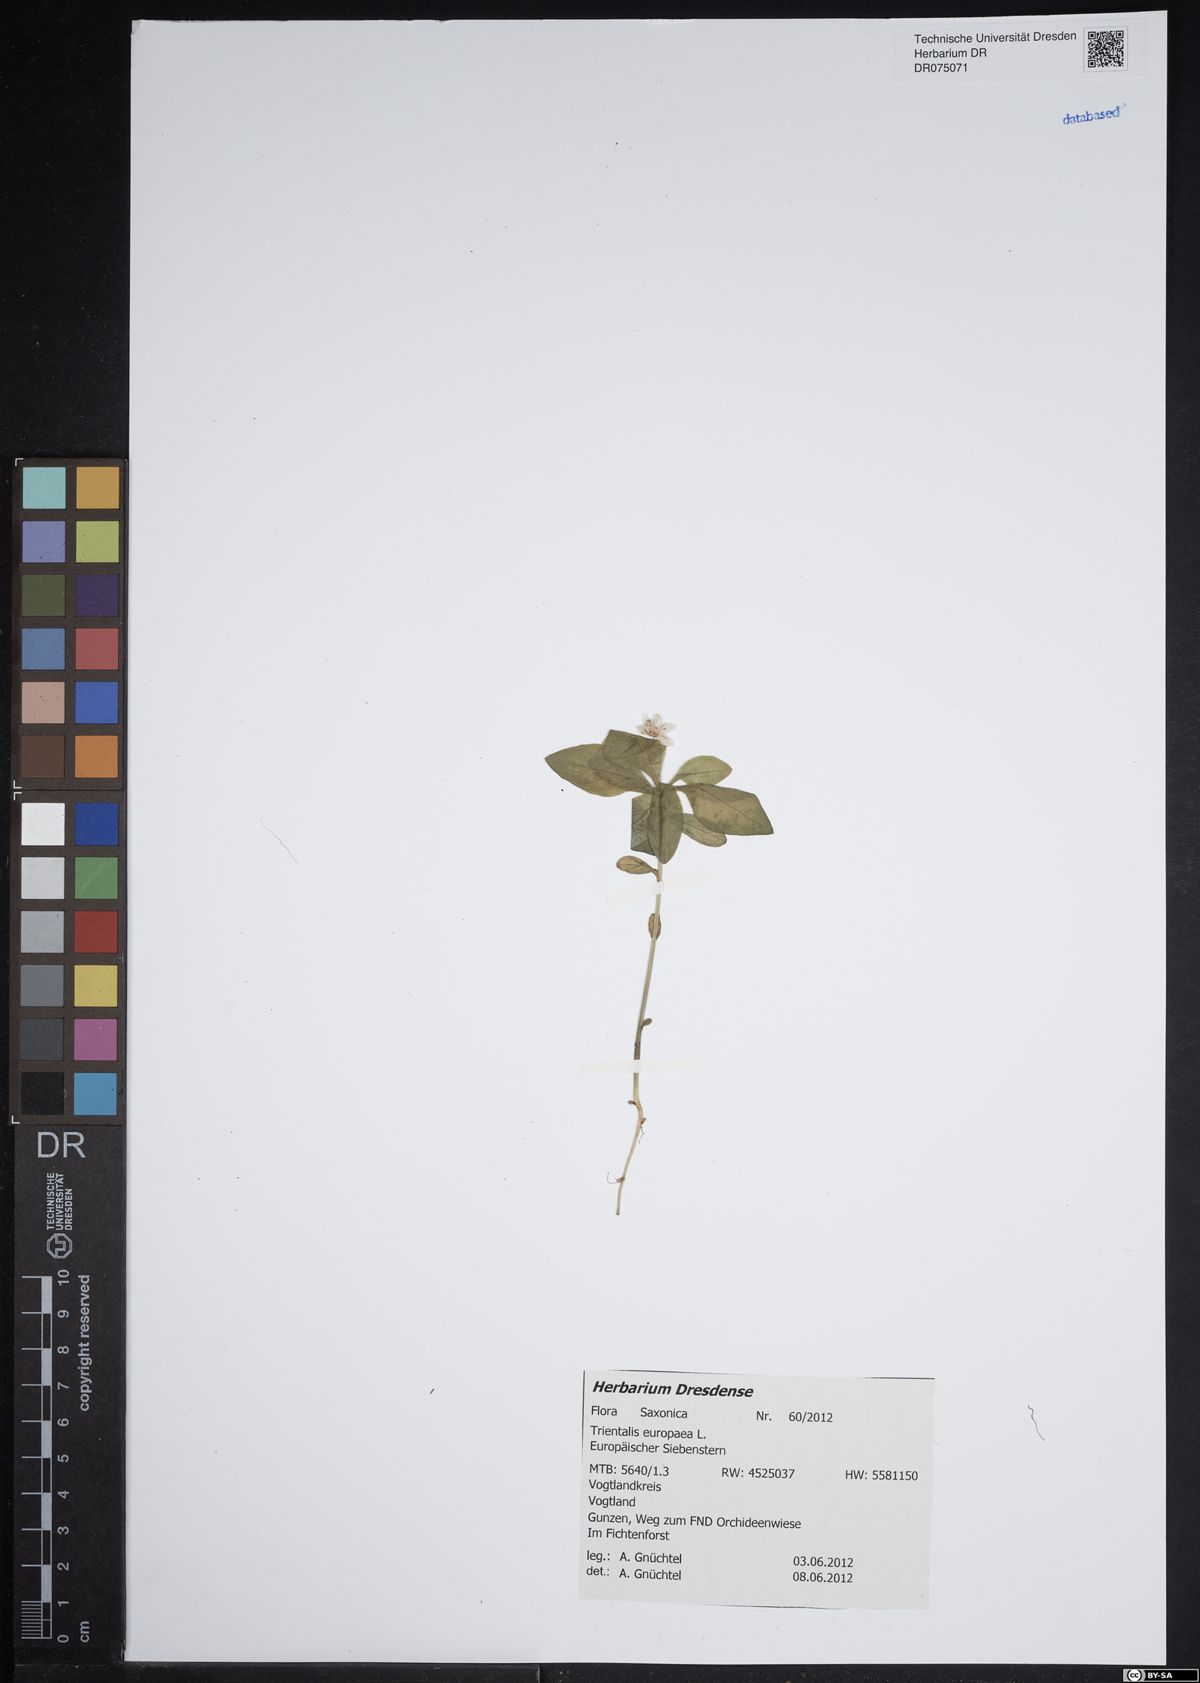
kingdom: Plantae
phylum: Tracheophyta
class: Magnoliopsida
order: Ericales
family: Primulaceae
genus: Lysimachia
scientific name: Lysimachia europaea
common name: Arctic starflower
